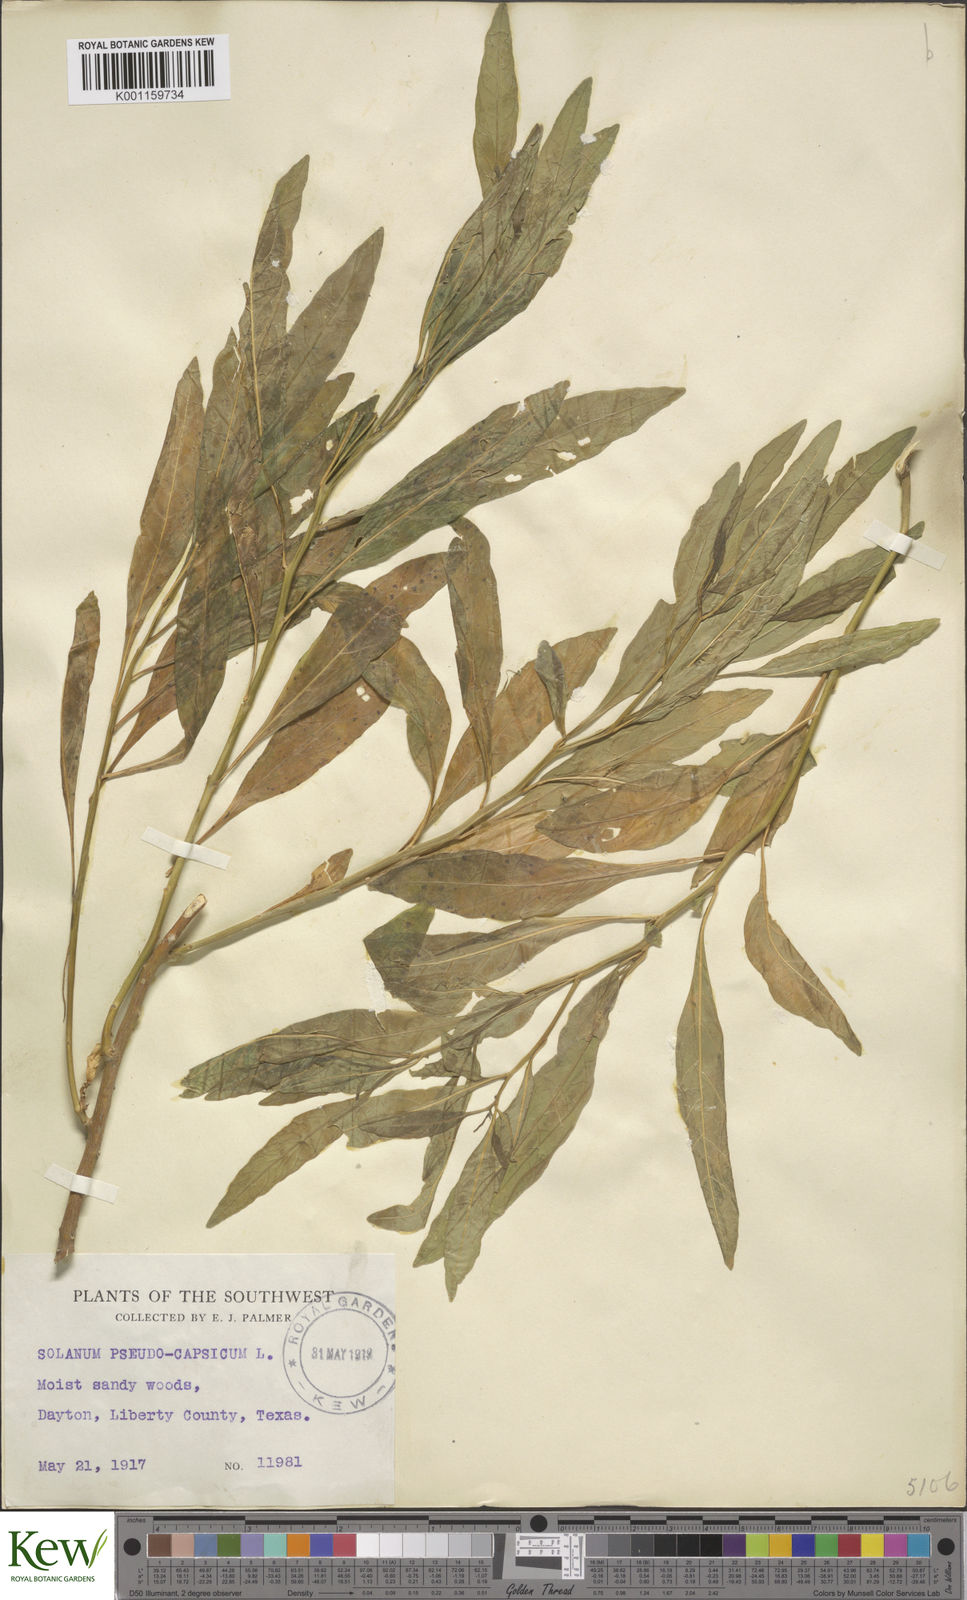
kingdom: Plantae
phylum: Tracheophyta
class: Magnoliopsida
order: Solanales
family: Solanaceae
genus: Solanum
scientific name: Solanum pseudocapsicum
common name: Jerusalem cherry
